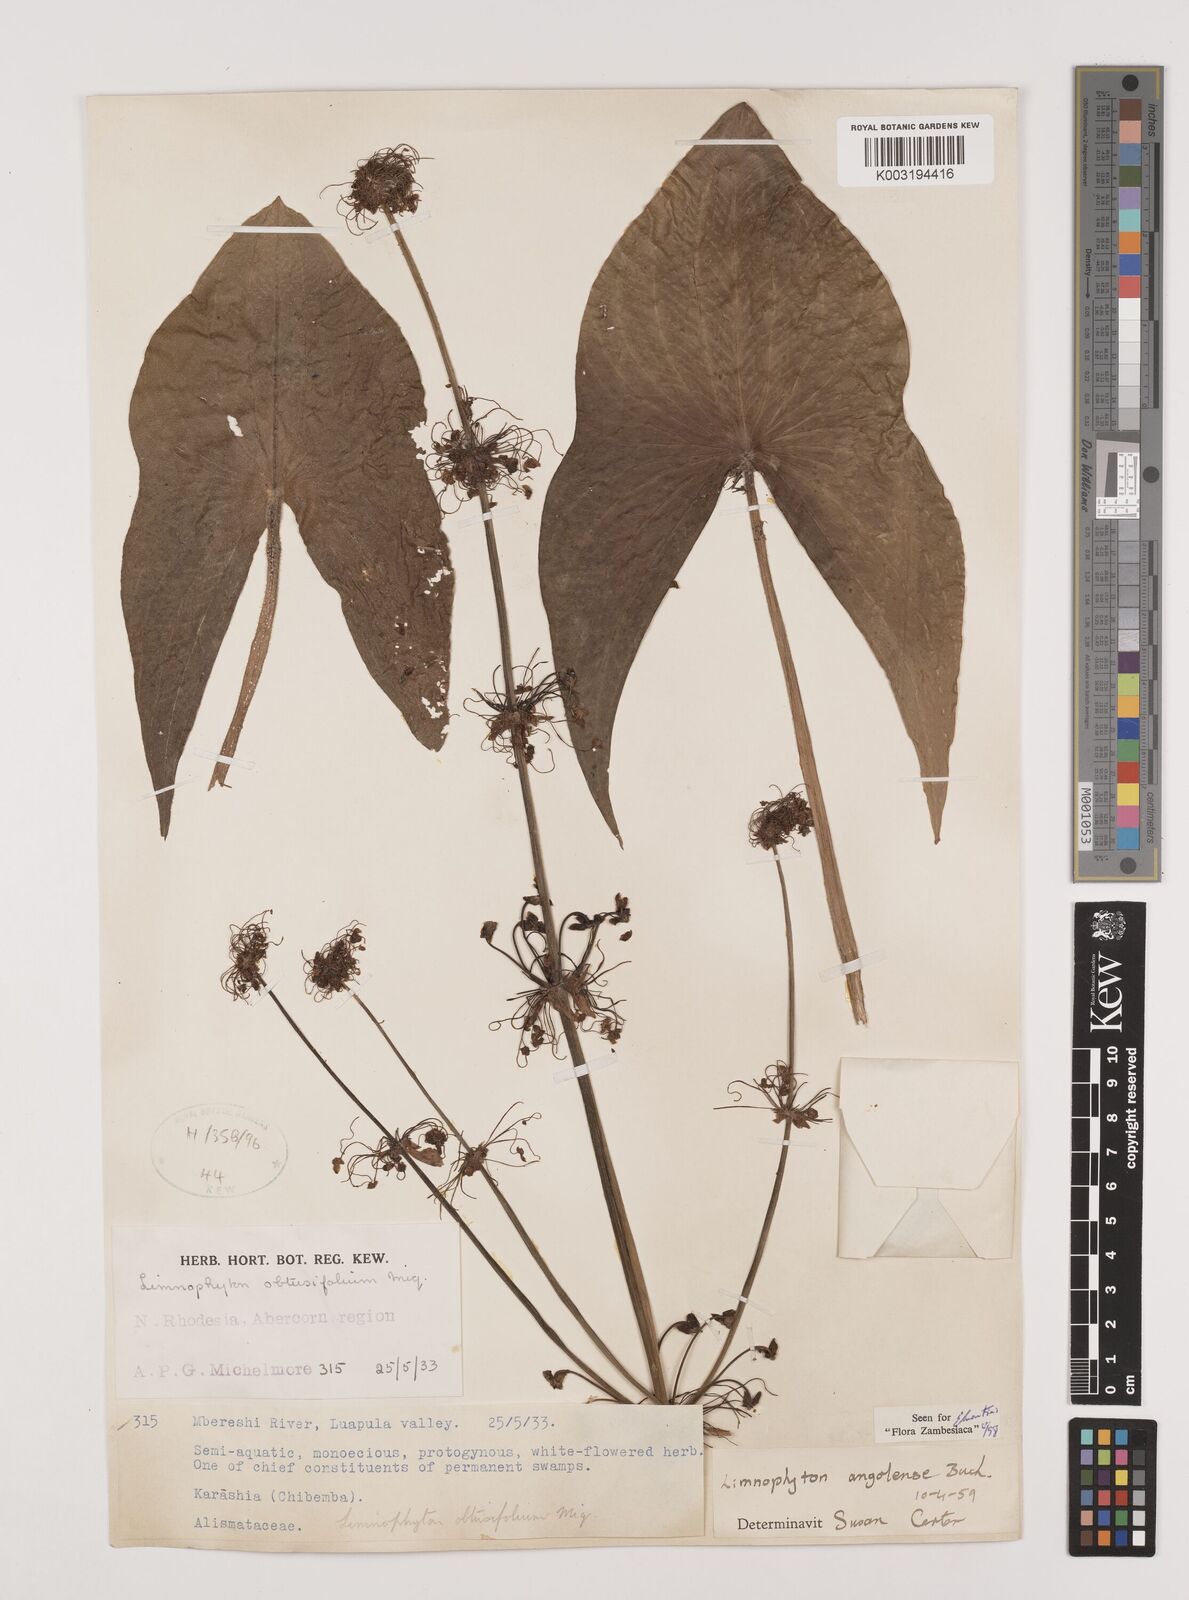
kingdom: Plantae
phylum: Tracheophyta
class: Liliopsida
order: Alismatales
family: Alismataceae
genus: Limnophyton
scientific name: Limnophyton angolense
